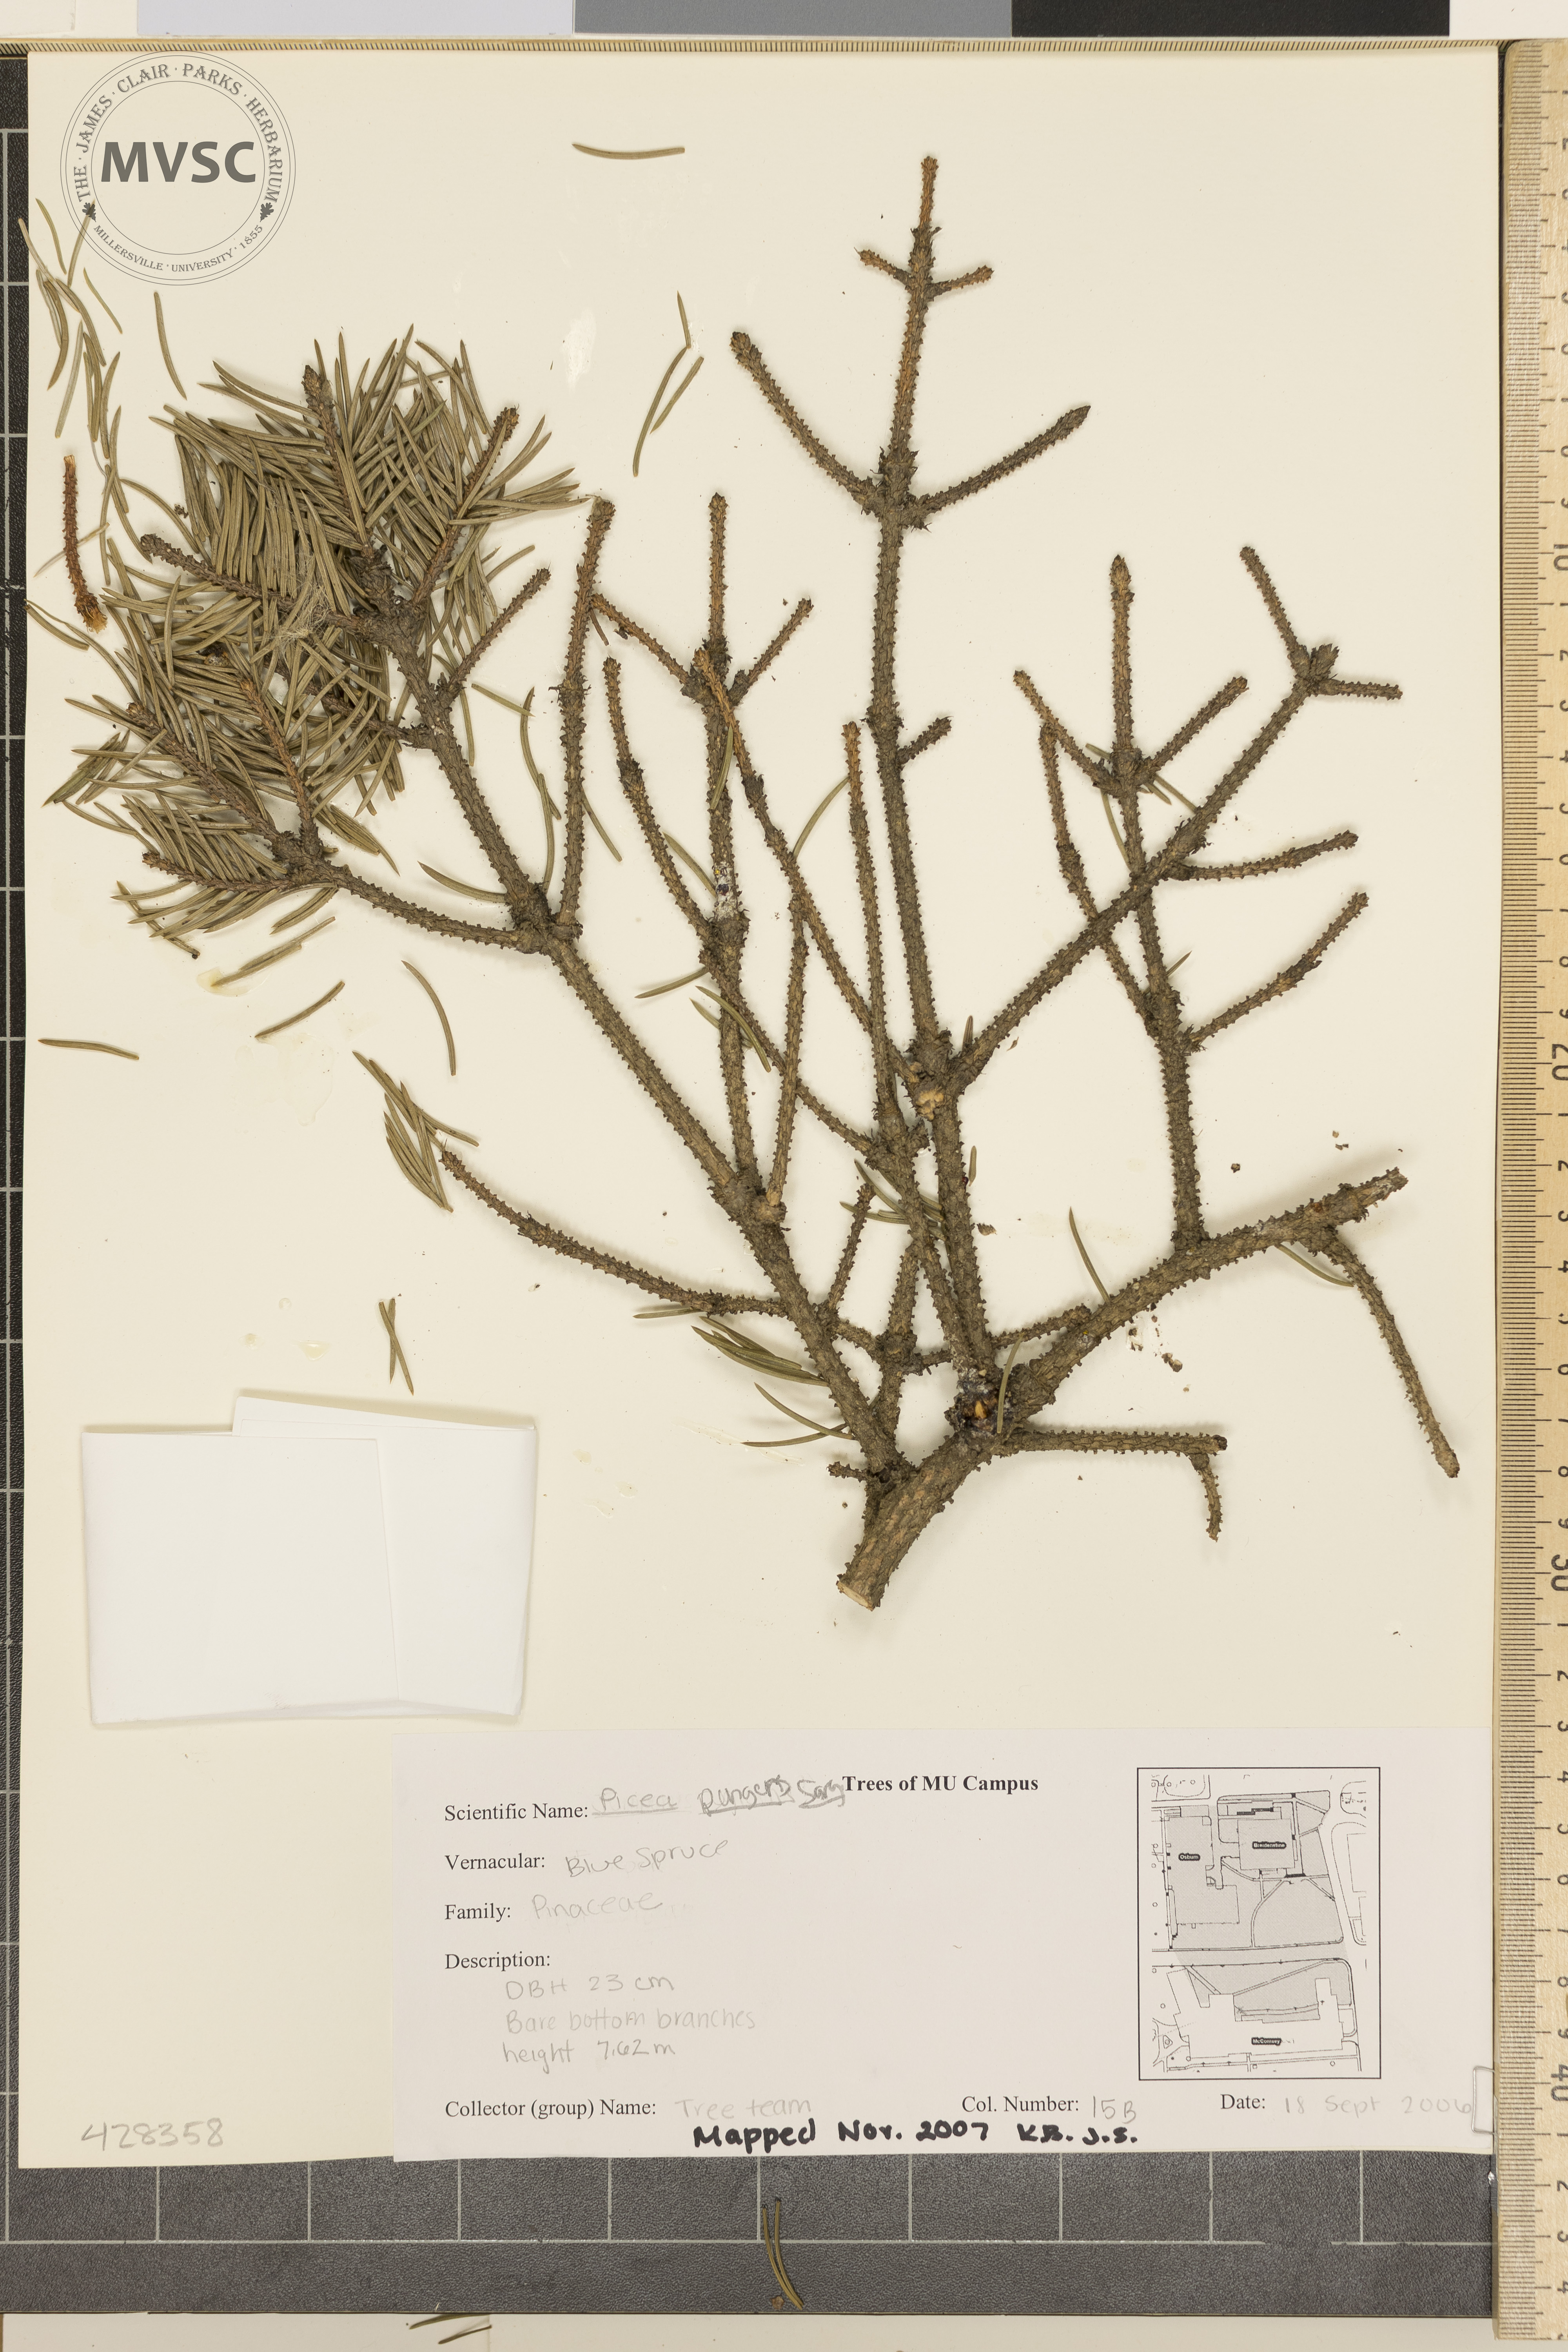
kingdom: Plantae
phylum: Tracheophyta
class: Pinopsida
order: Pinales
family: Pinaceae
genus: Picea
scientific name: Picea pungens
